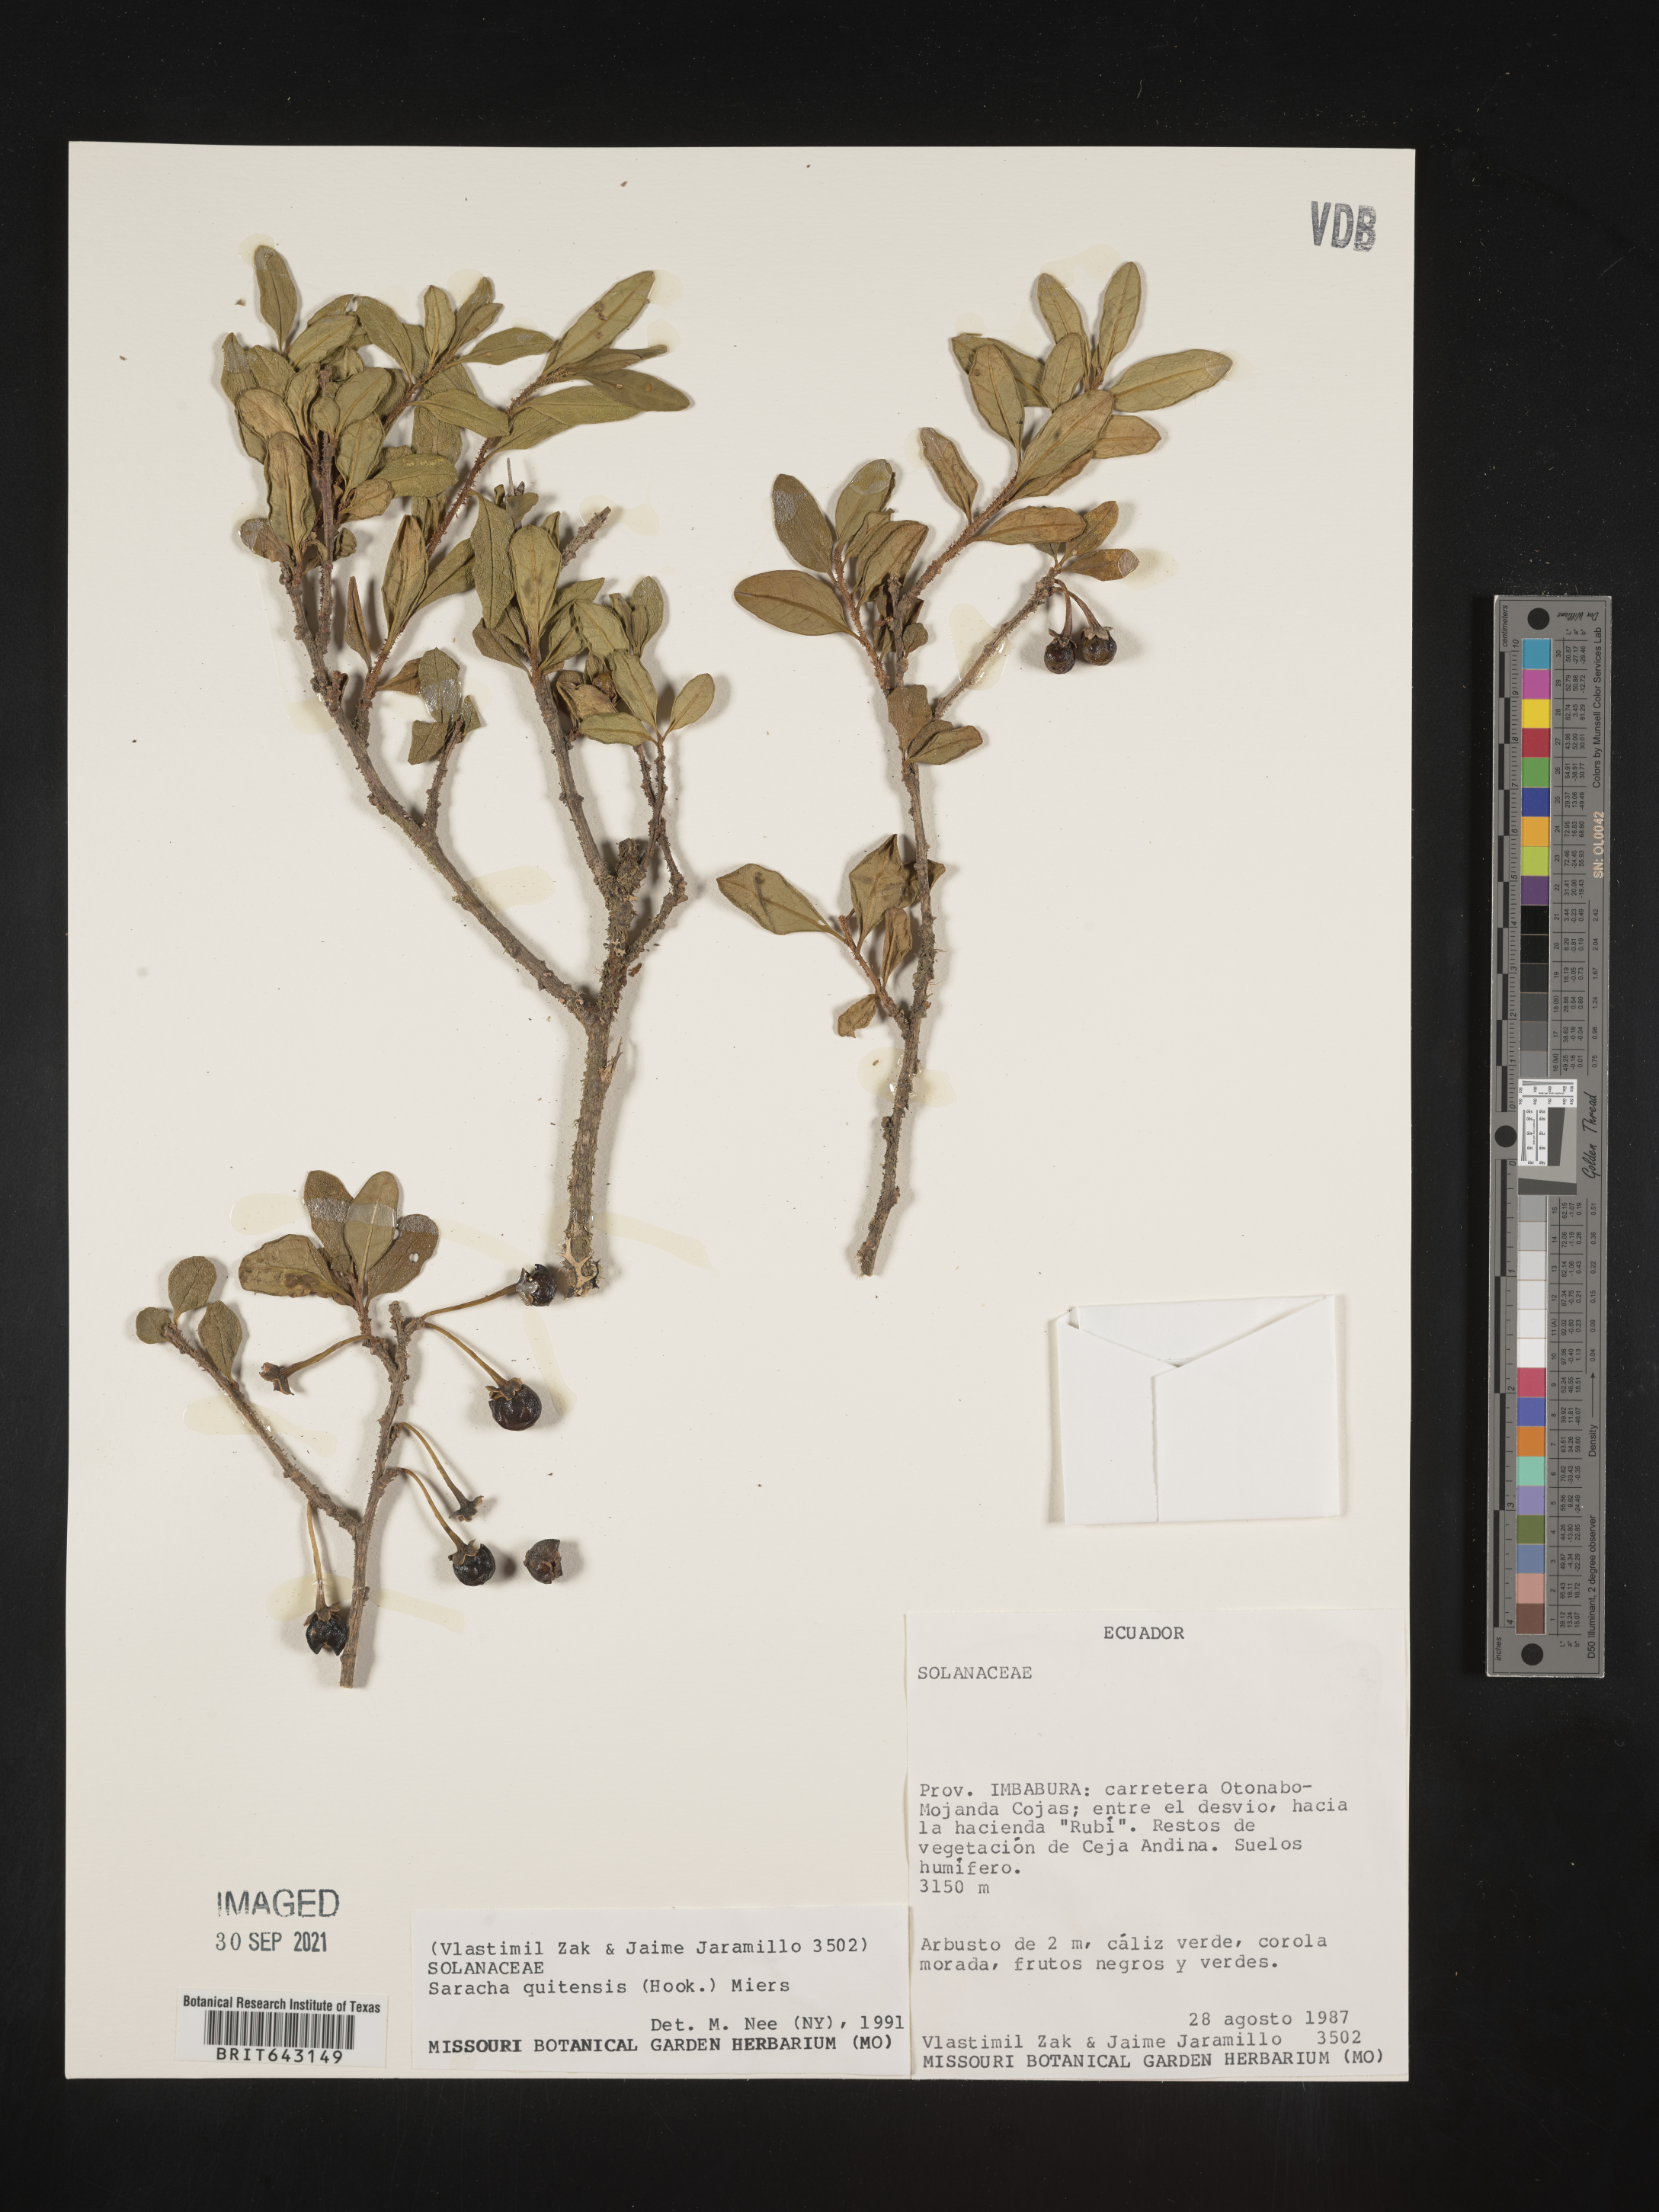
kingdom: Plantae
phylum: Tracheophyta
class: Magnoliopsida
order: Solanales
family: Solanaceae
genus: Saracha
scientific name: Saracha
